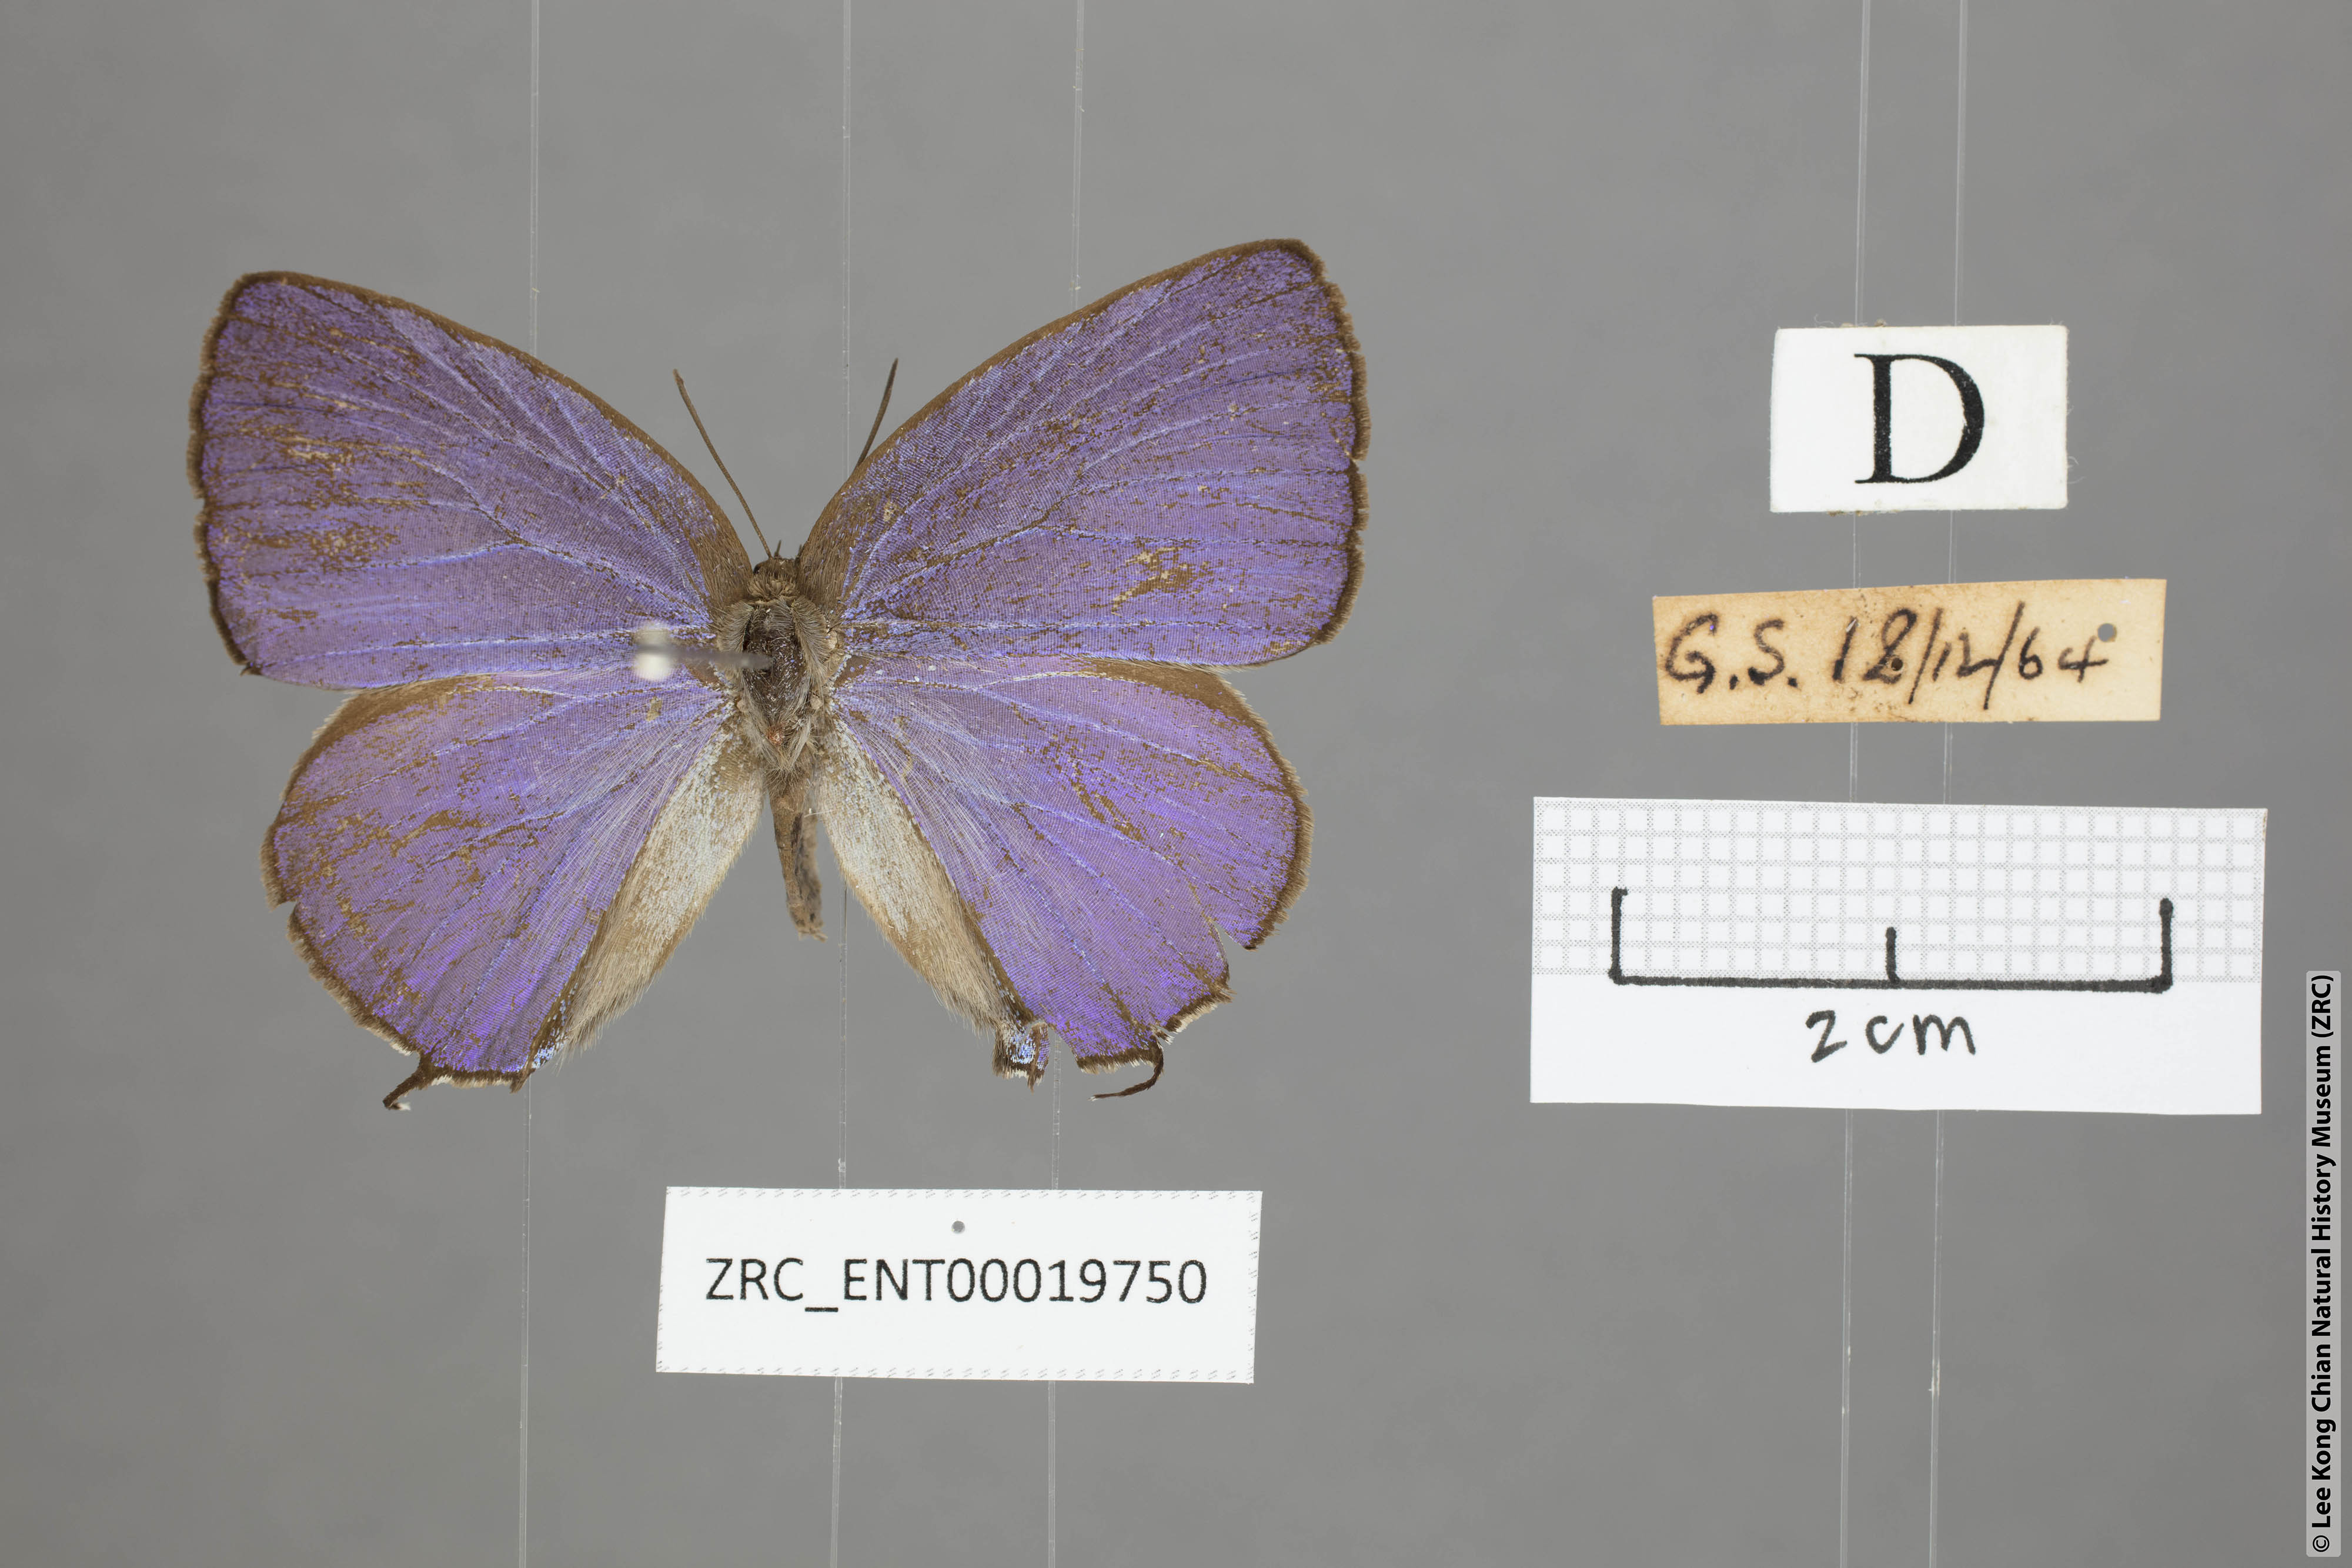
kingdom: Animalia
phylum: Arthropoda
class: Insecta
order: Lepidoptera
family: Lycaenidae
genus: Arhopala
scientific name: Arhopala opalina
